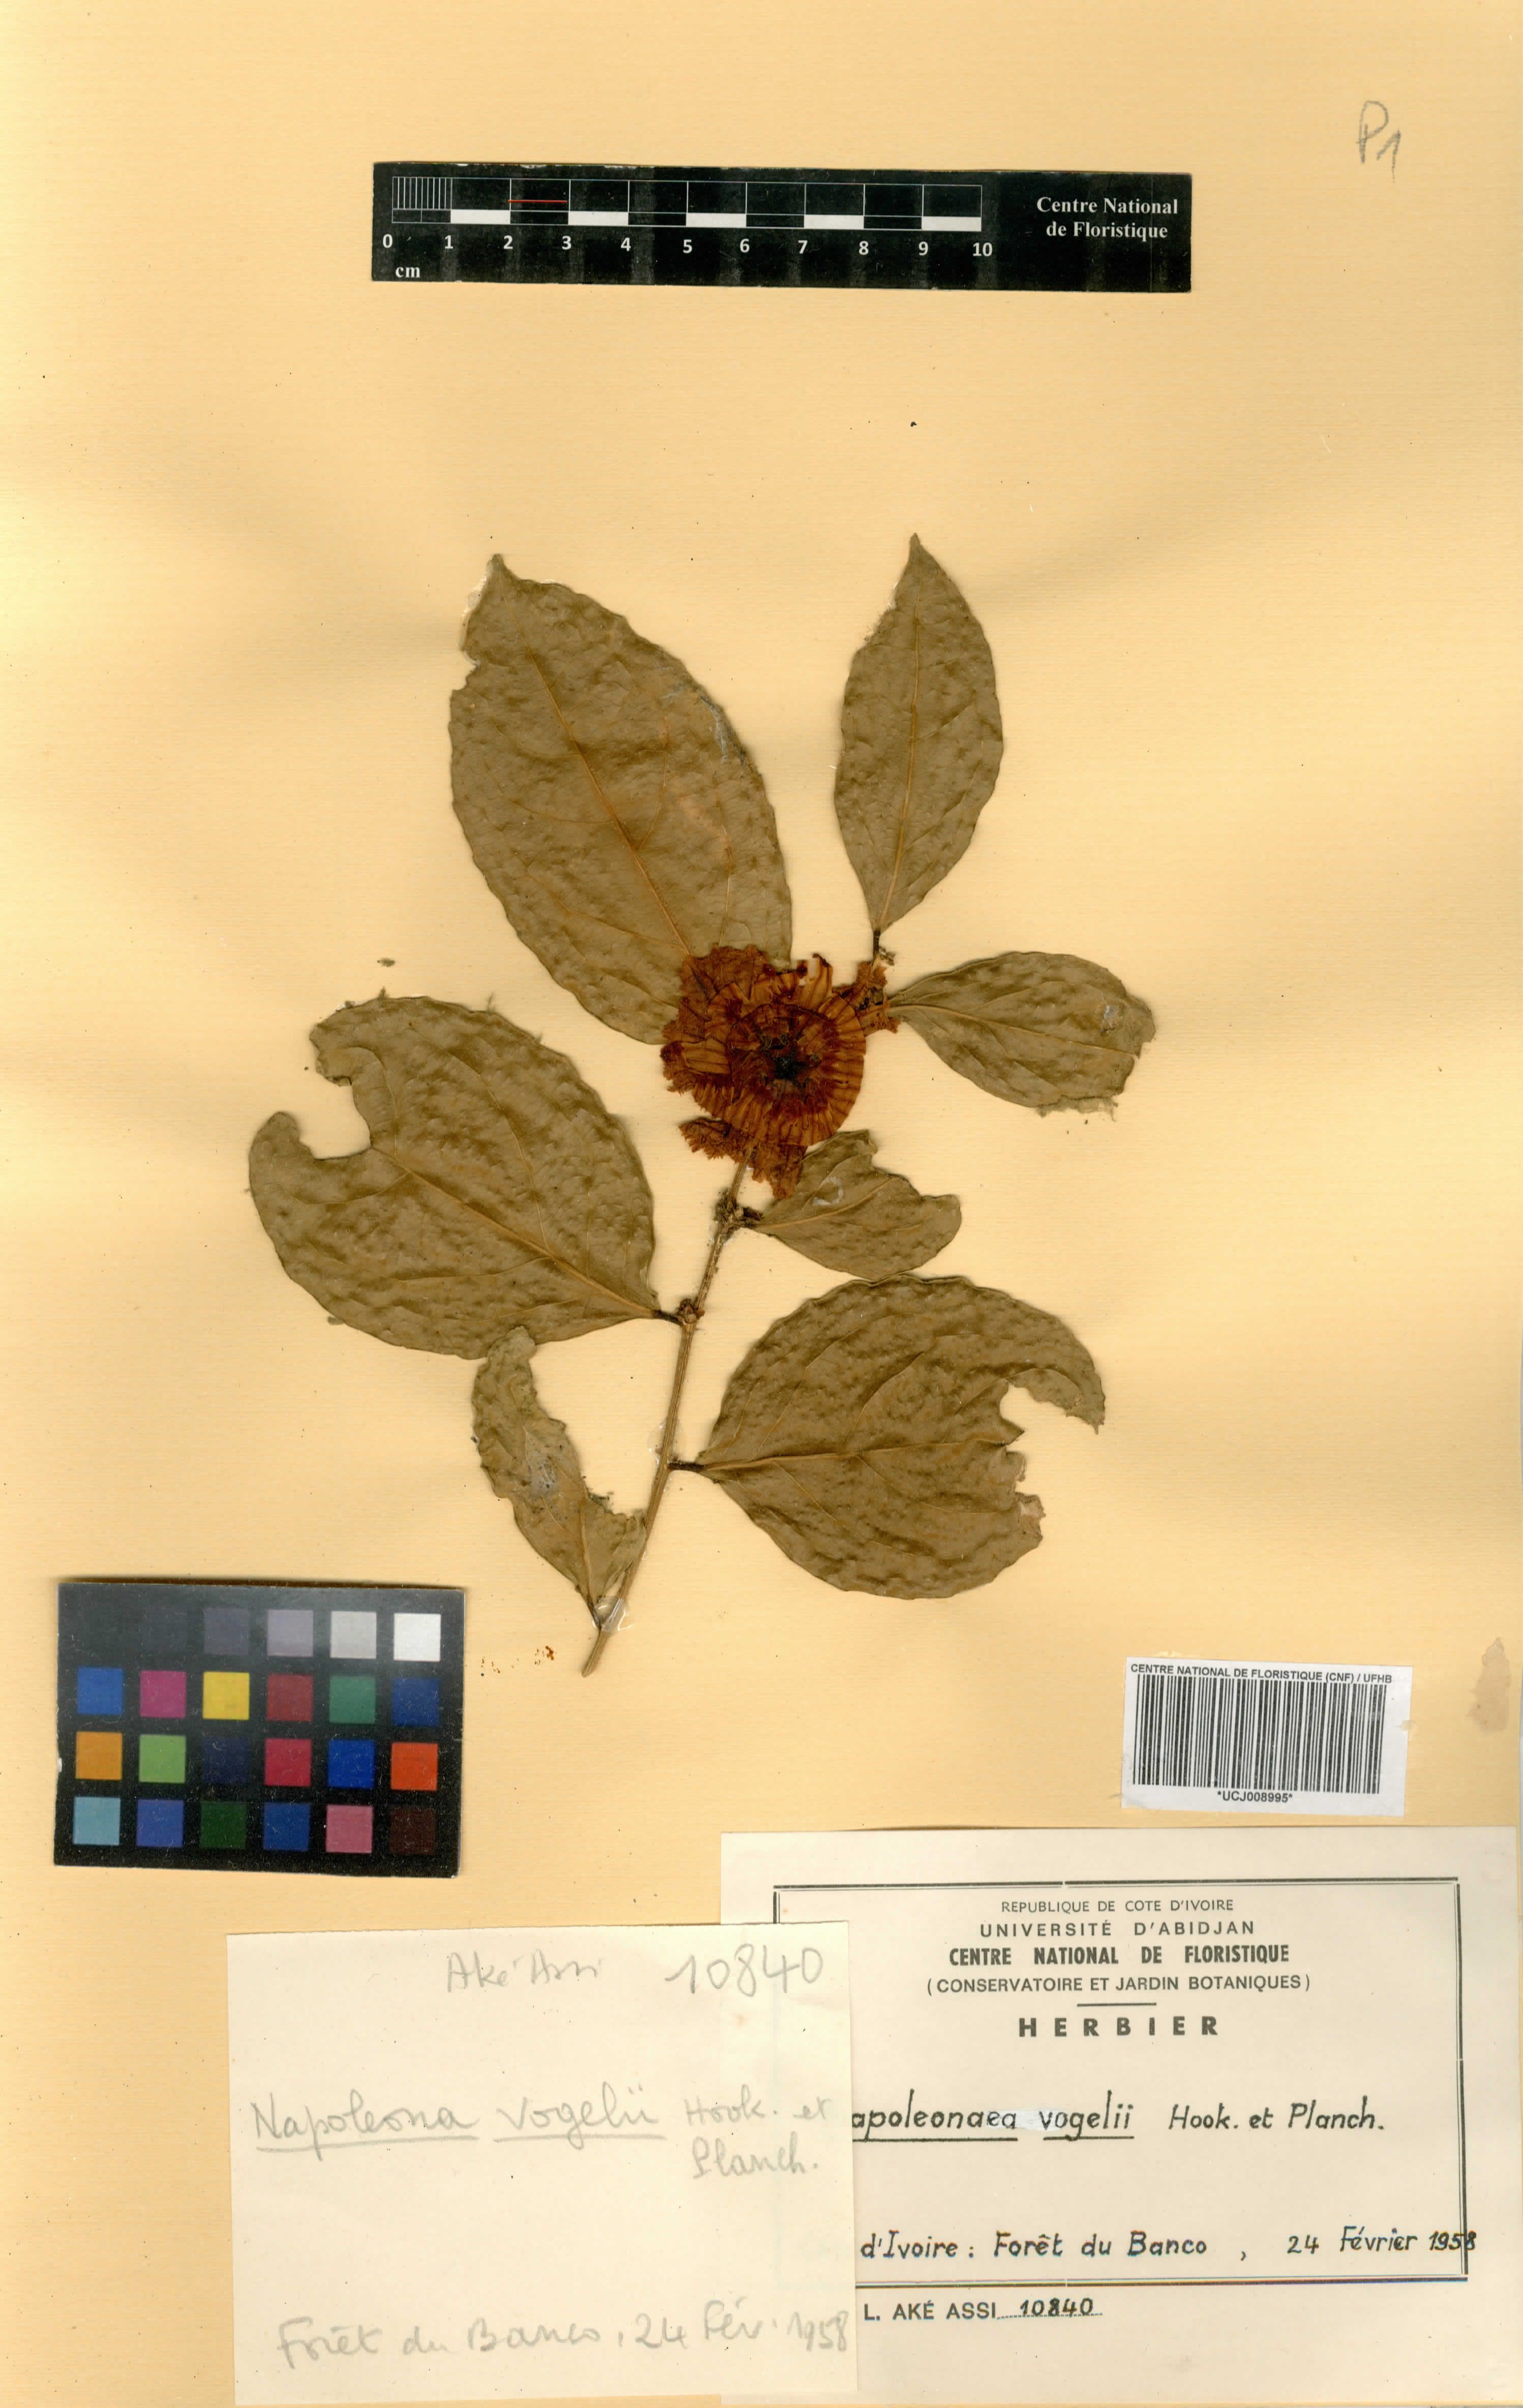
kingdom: Plantae
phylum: Tracheophyta
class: Magnoliopsida
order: Ericales
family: Lecythidaceae
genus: Napoleonaea
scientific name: Napoleonaea vogelii
